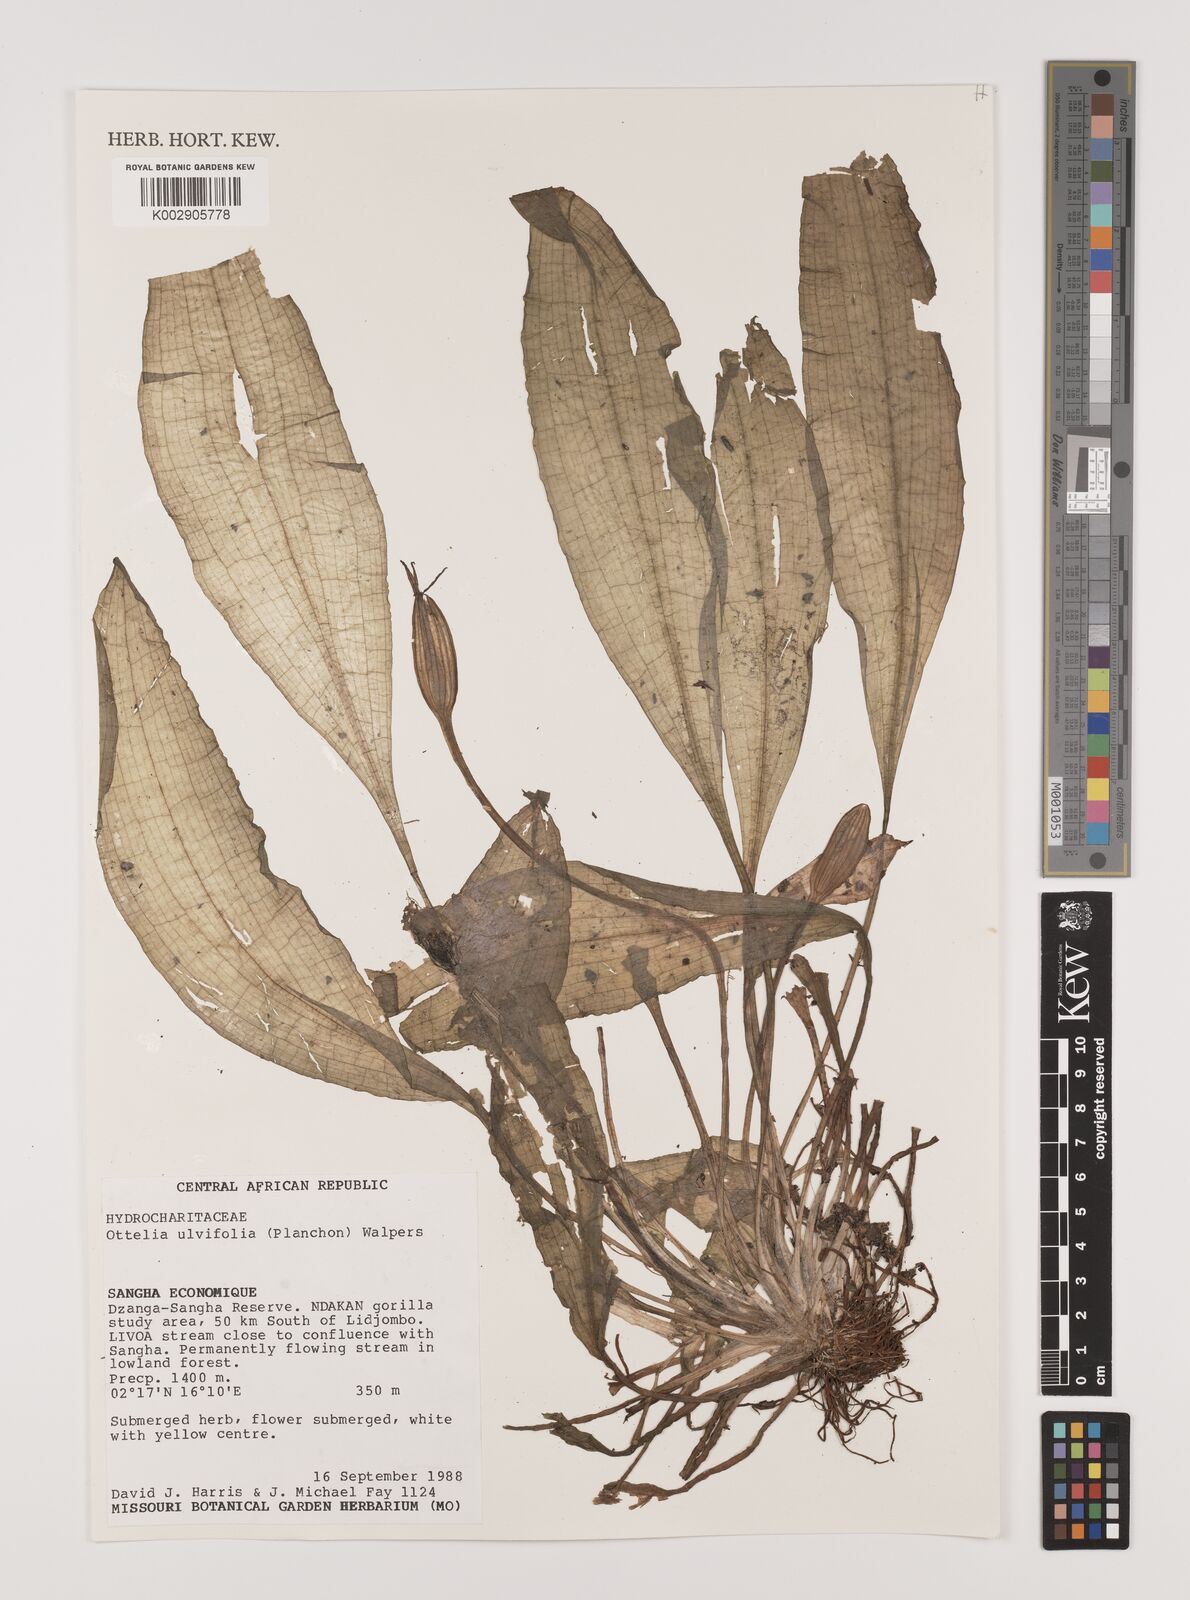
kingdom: Plantae
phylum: Tracheophyta
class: Liliopsida
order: Alismatales
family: Hydrocharitaceae
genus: Ottelia
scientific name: Ottelia ulvifolia
